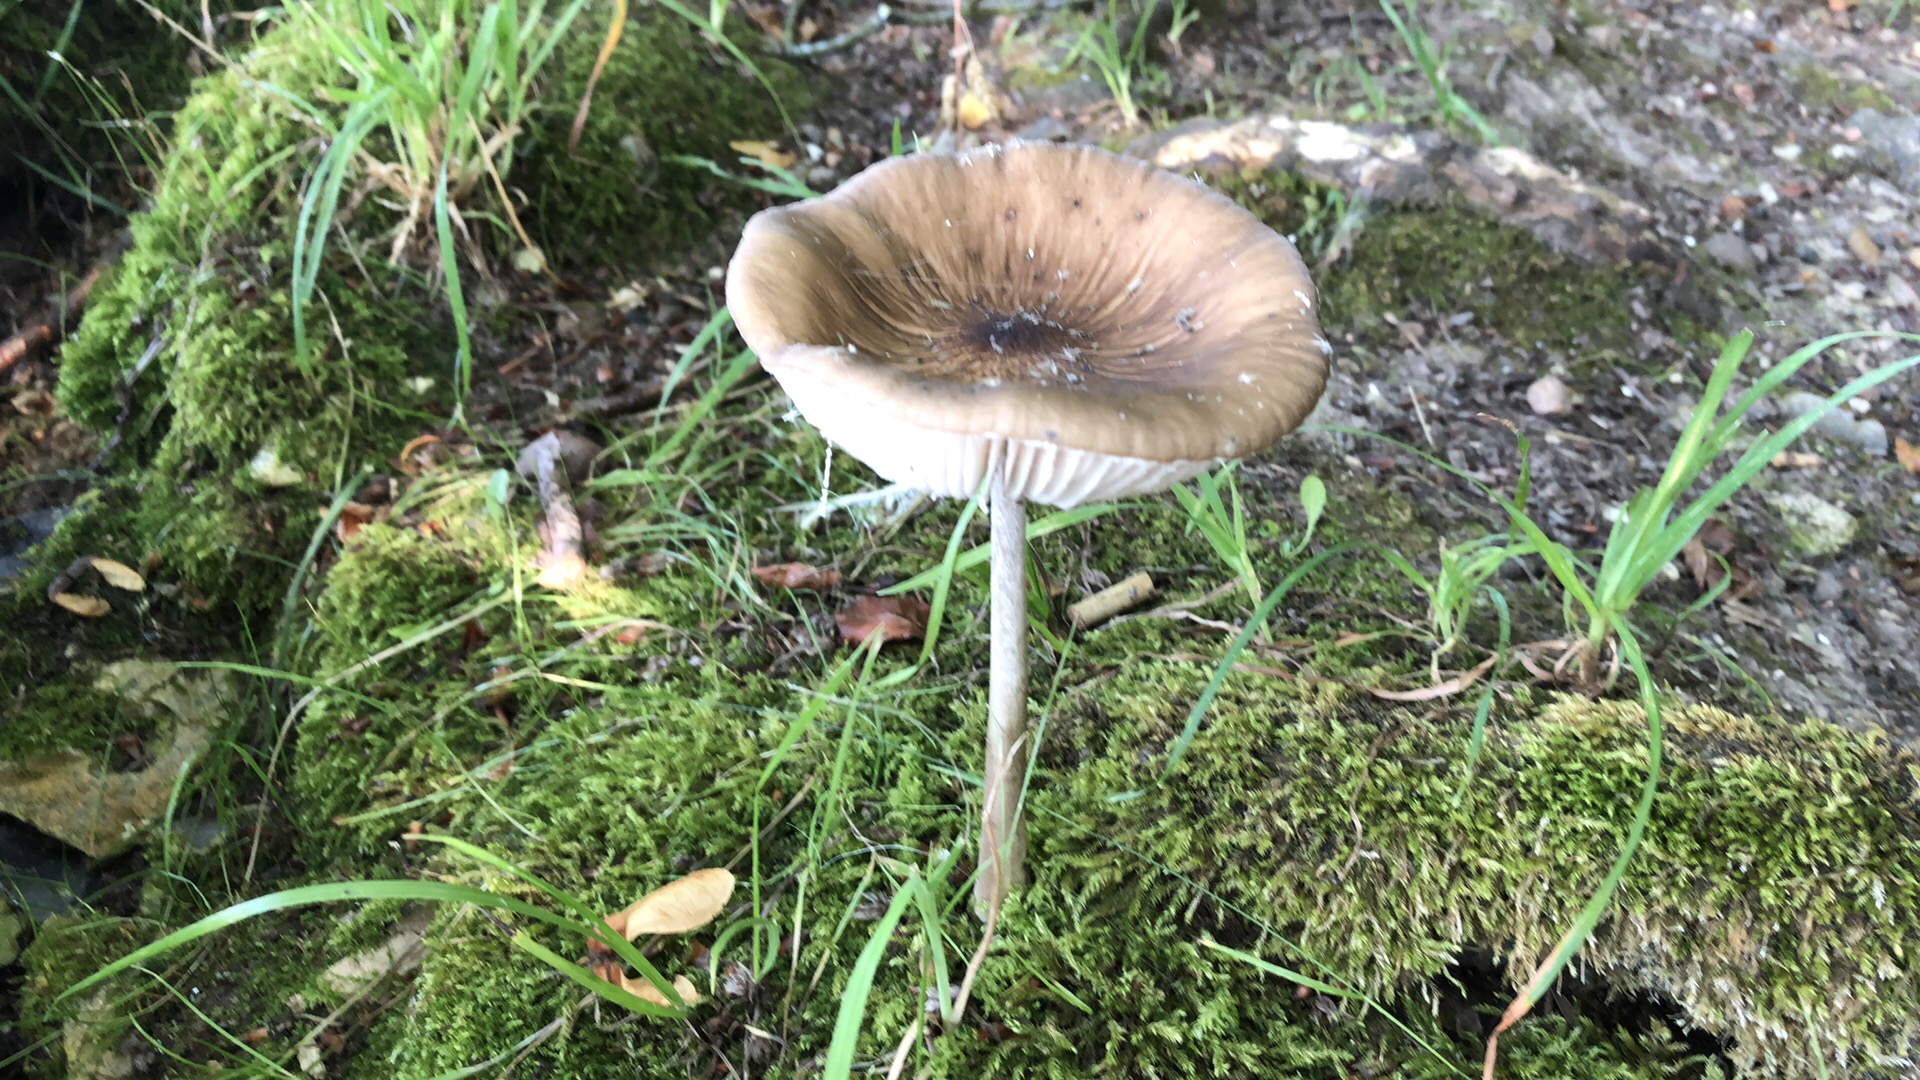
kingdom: Fungi
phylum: Basidiomycota
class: Agaricomycetes
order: Agaricales
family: Physalacriaceae
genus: Hymenopellis
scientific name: Hymenopellis radicata
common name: almindelig pælerodshat
